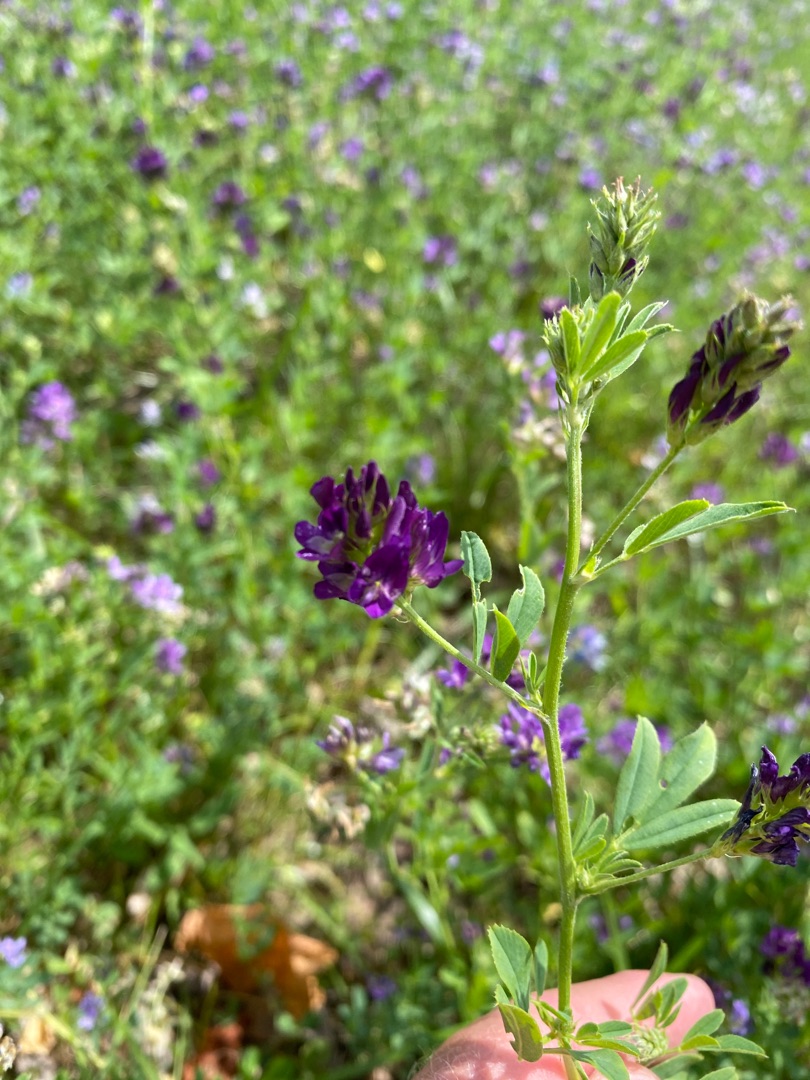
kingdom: Plantae
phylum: Tracheophyta
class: Magnoliopsida
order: Fabales
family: Fabaceae
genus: Medicago
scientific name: Medicago sativa
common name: Lucerne
